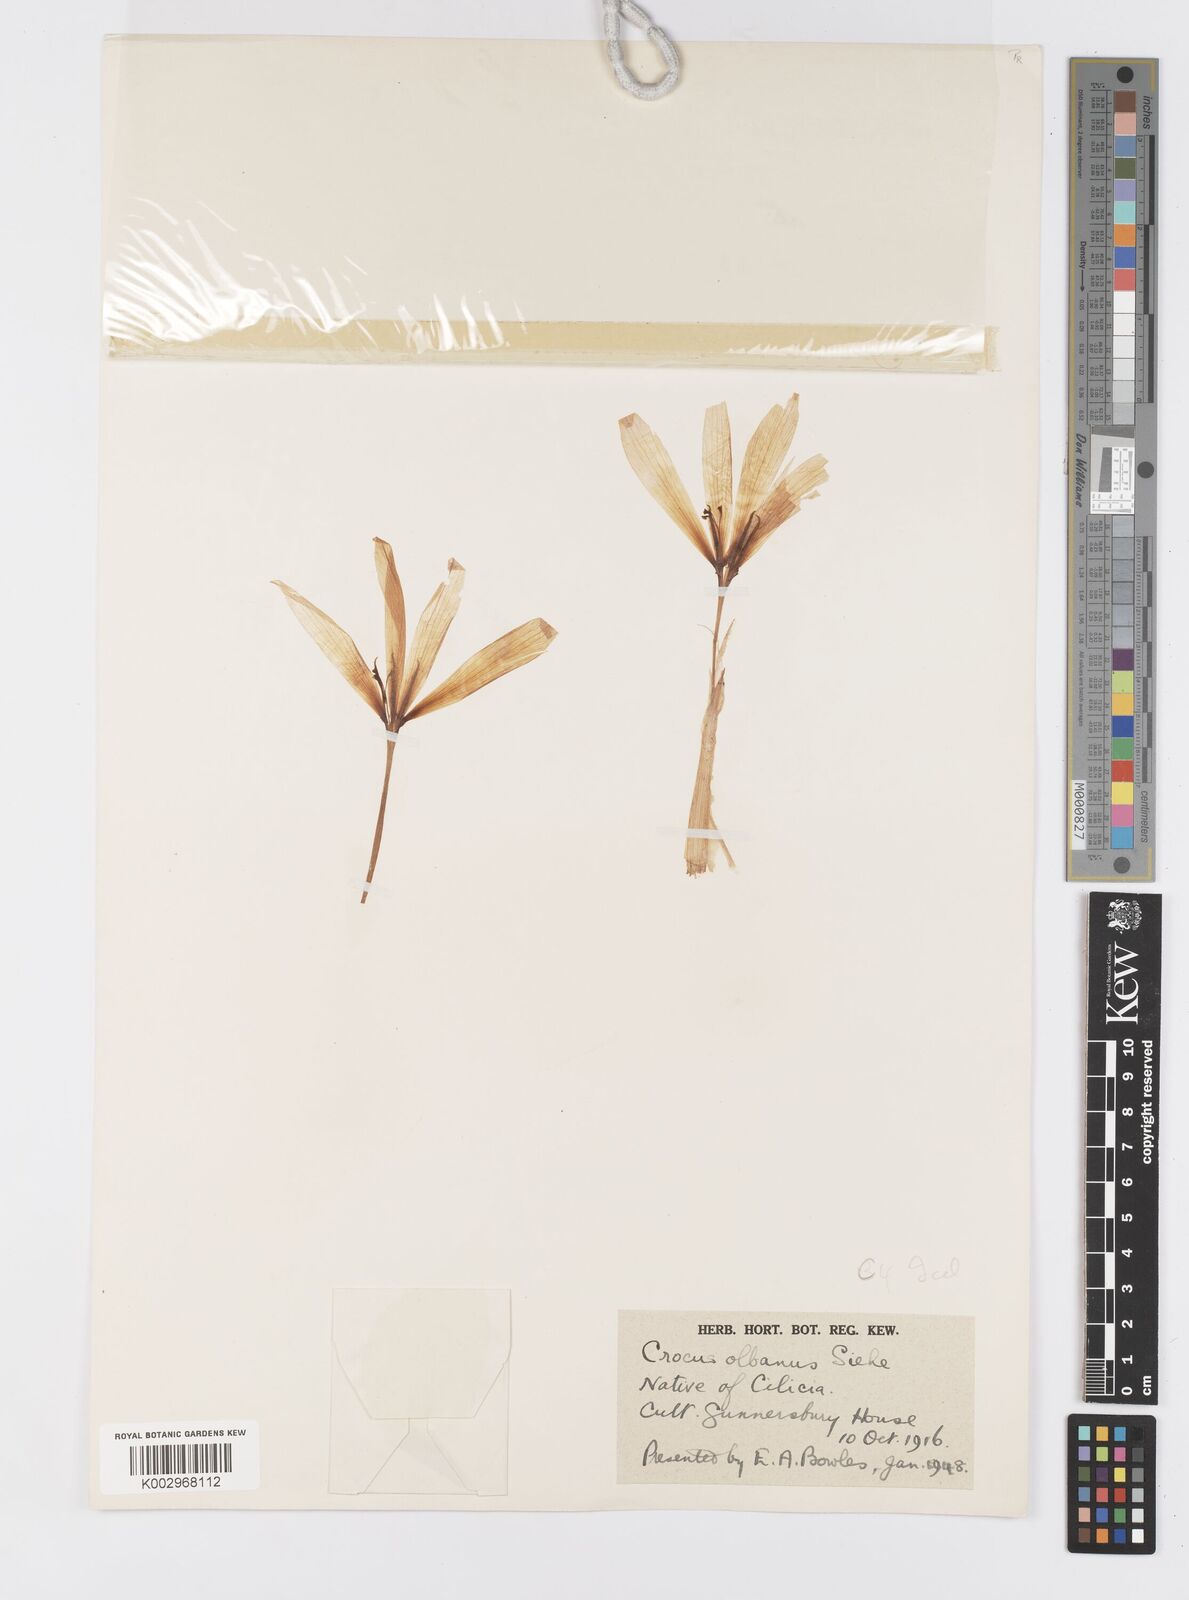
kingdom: Plantae
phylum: Tracheophyta
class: Liliopsida
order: Asparagales
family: Iridaceae
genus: Crocus
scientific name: Crocus
